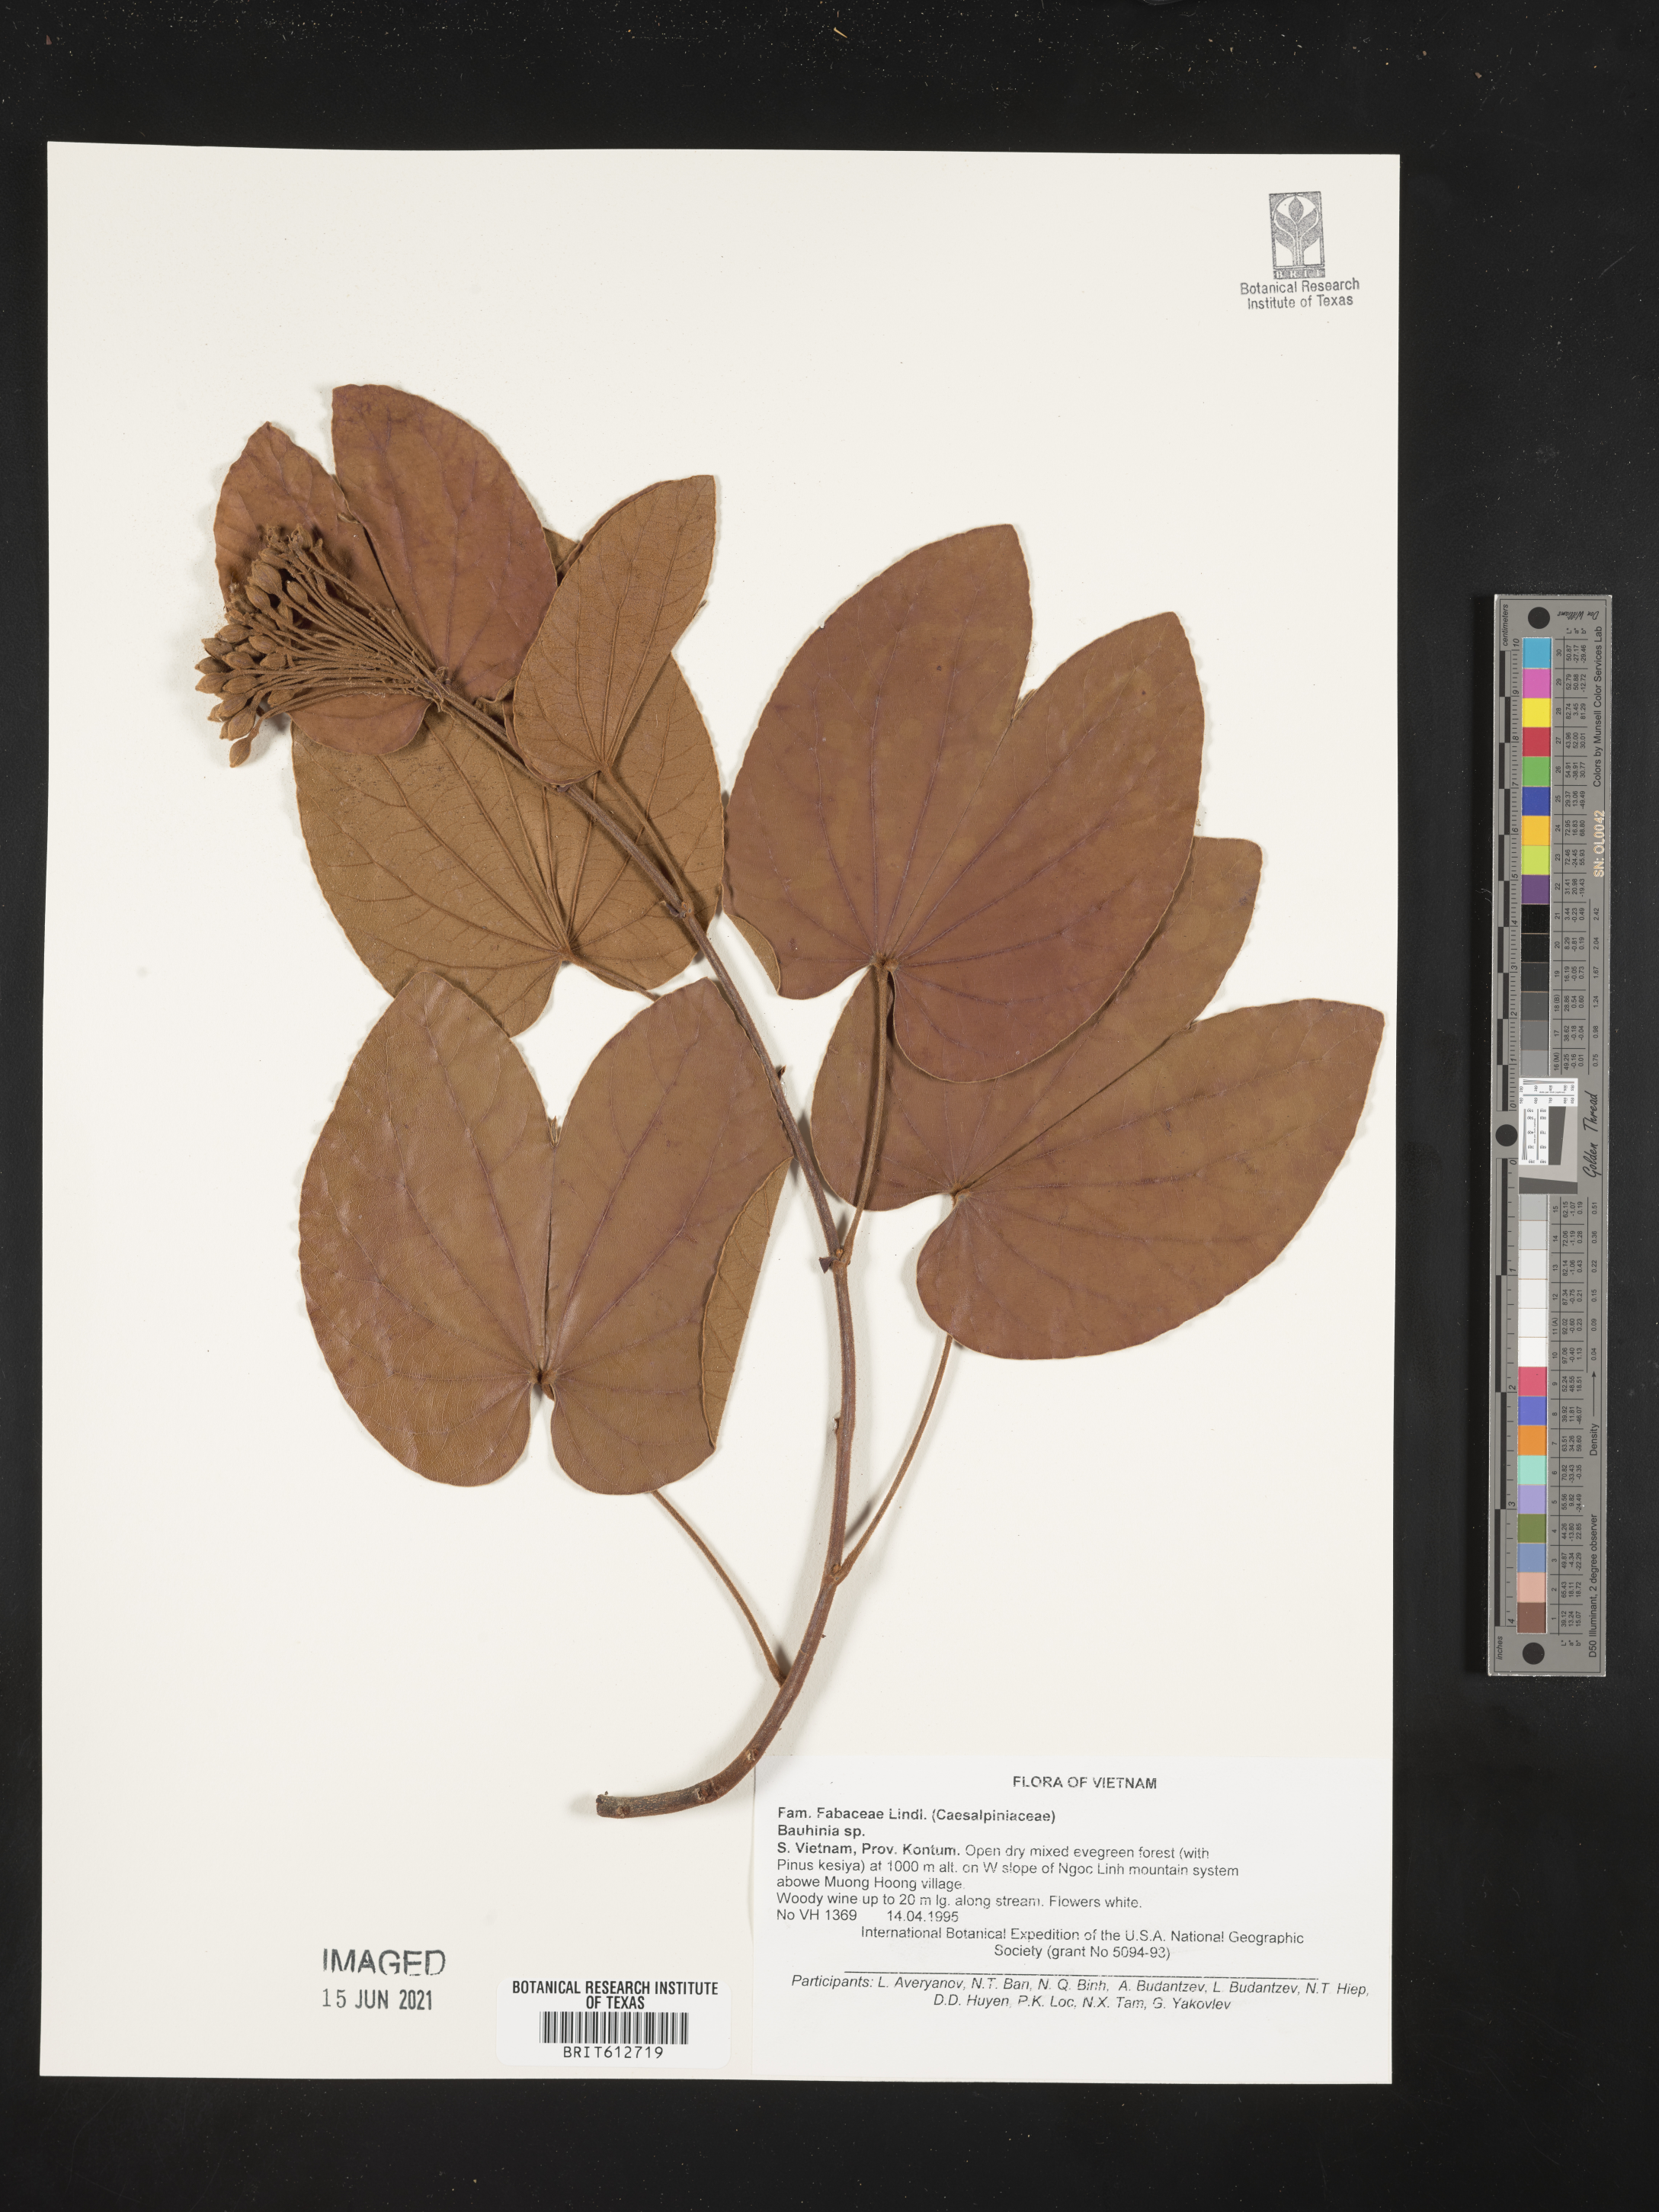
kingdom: Plantae
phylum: Tracheophyta
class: Magnoliopsida
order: Fabales
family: Fabaceae
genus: Bauhinia
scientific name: Bauhinia
